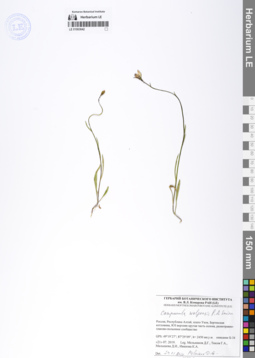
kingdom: Plantae
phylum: Tracheophyta
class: Magnoliopsida
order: Asterales
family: Campanulaceae
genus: Campanula
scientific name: Campanula stevenii
